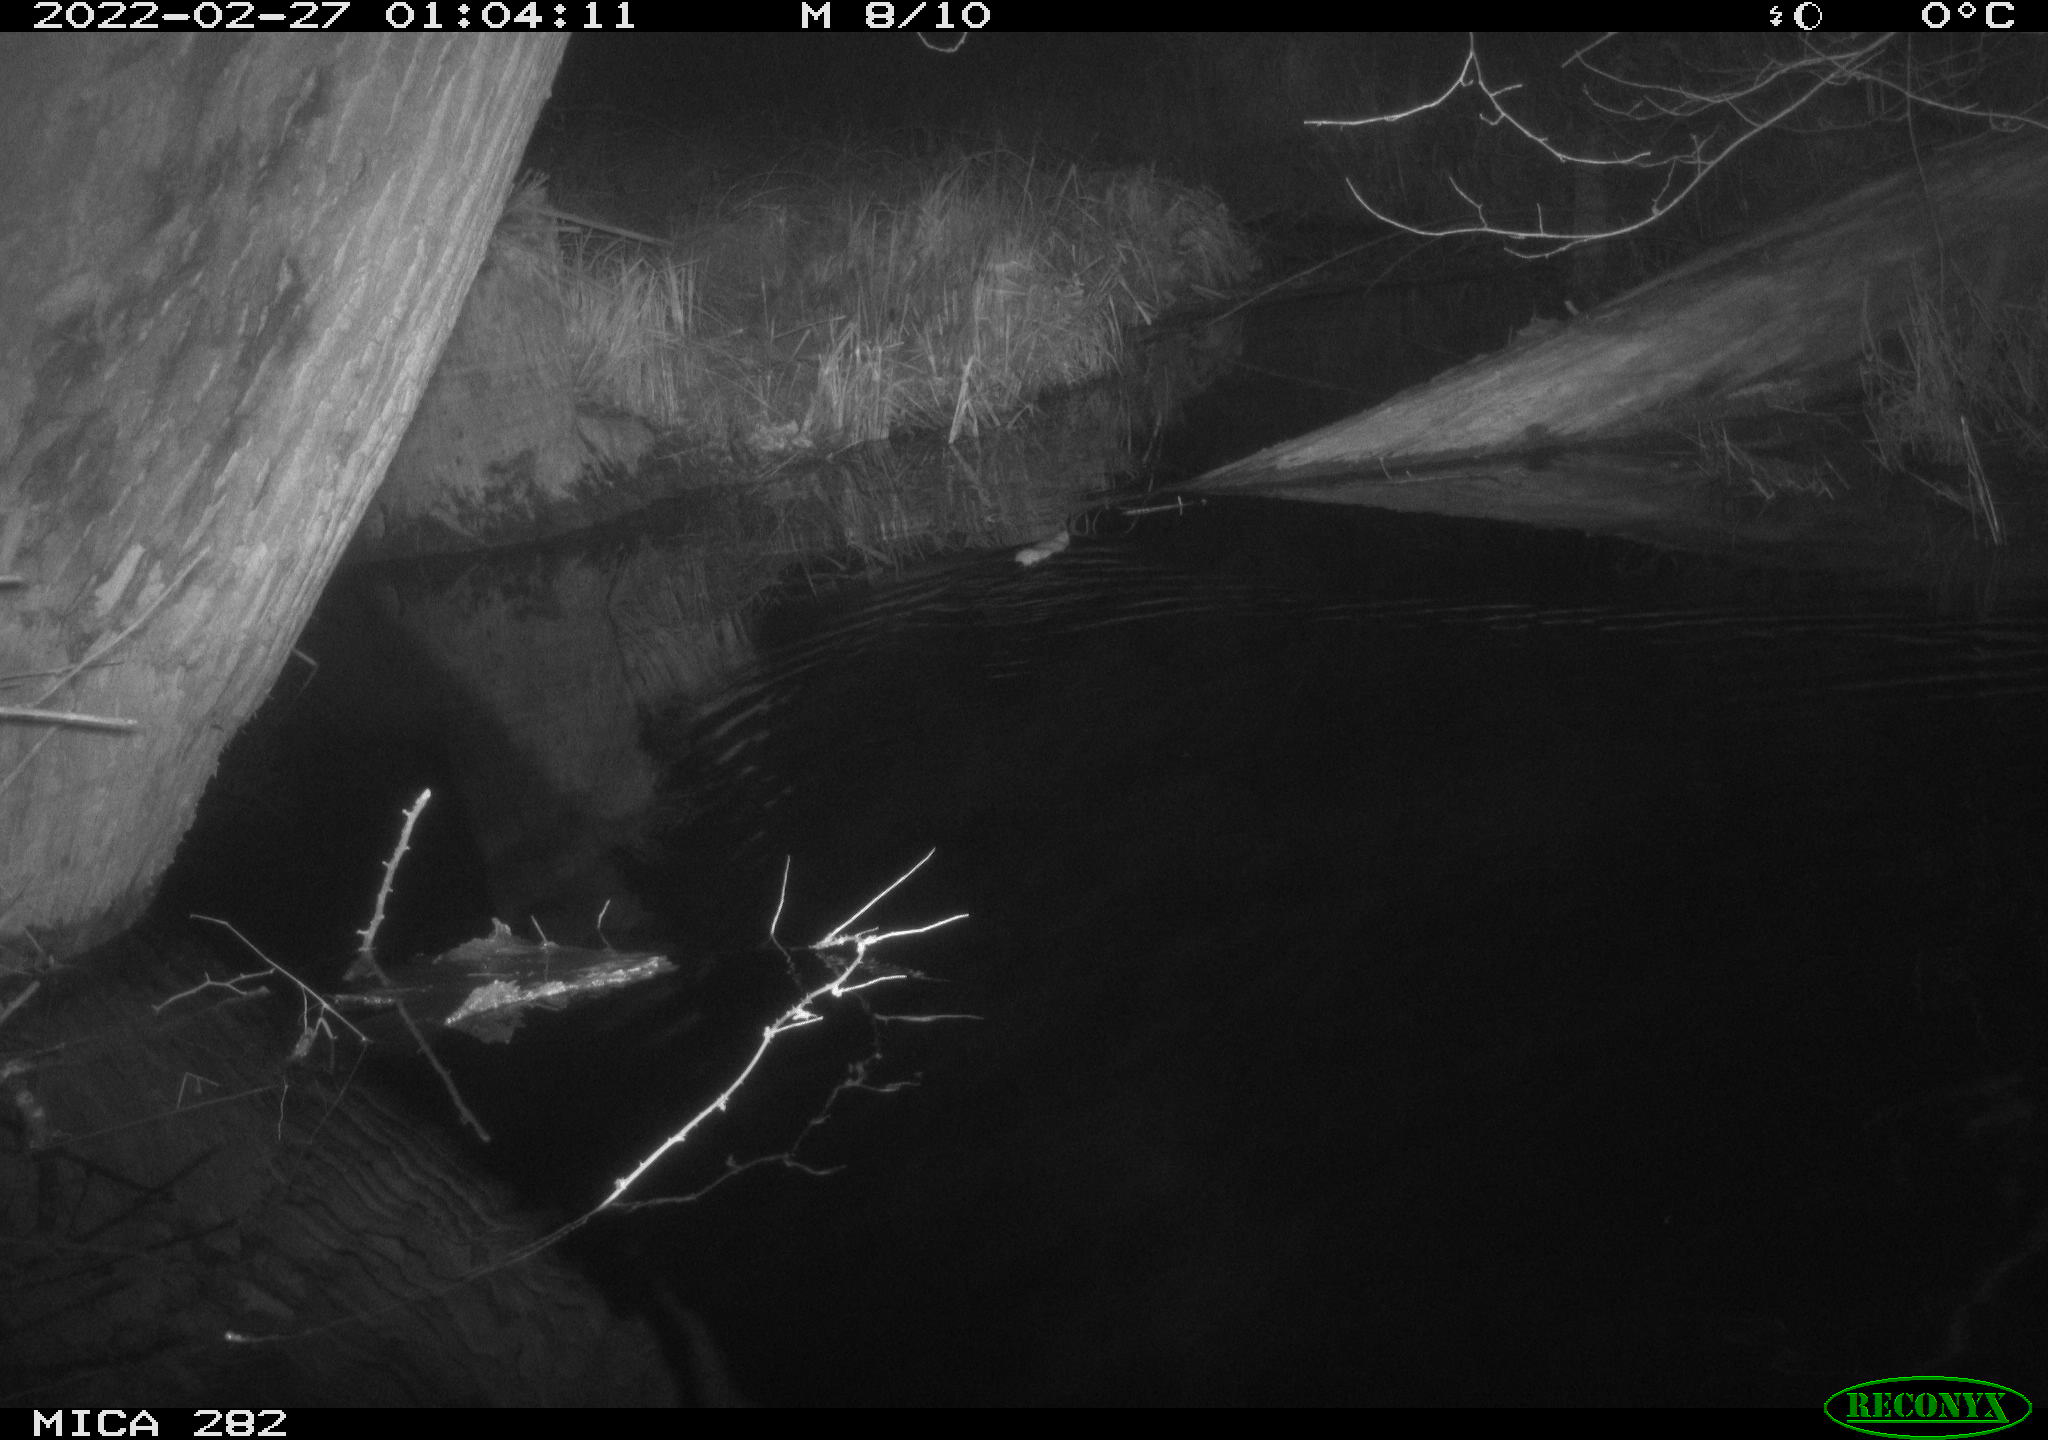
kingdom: Animalia
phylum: Chordata
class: Mammalia
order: Rodentia
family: Muridae
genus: Rattus
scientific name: Rattus norvegicus
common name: Brown rat
